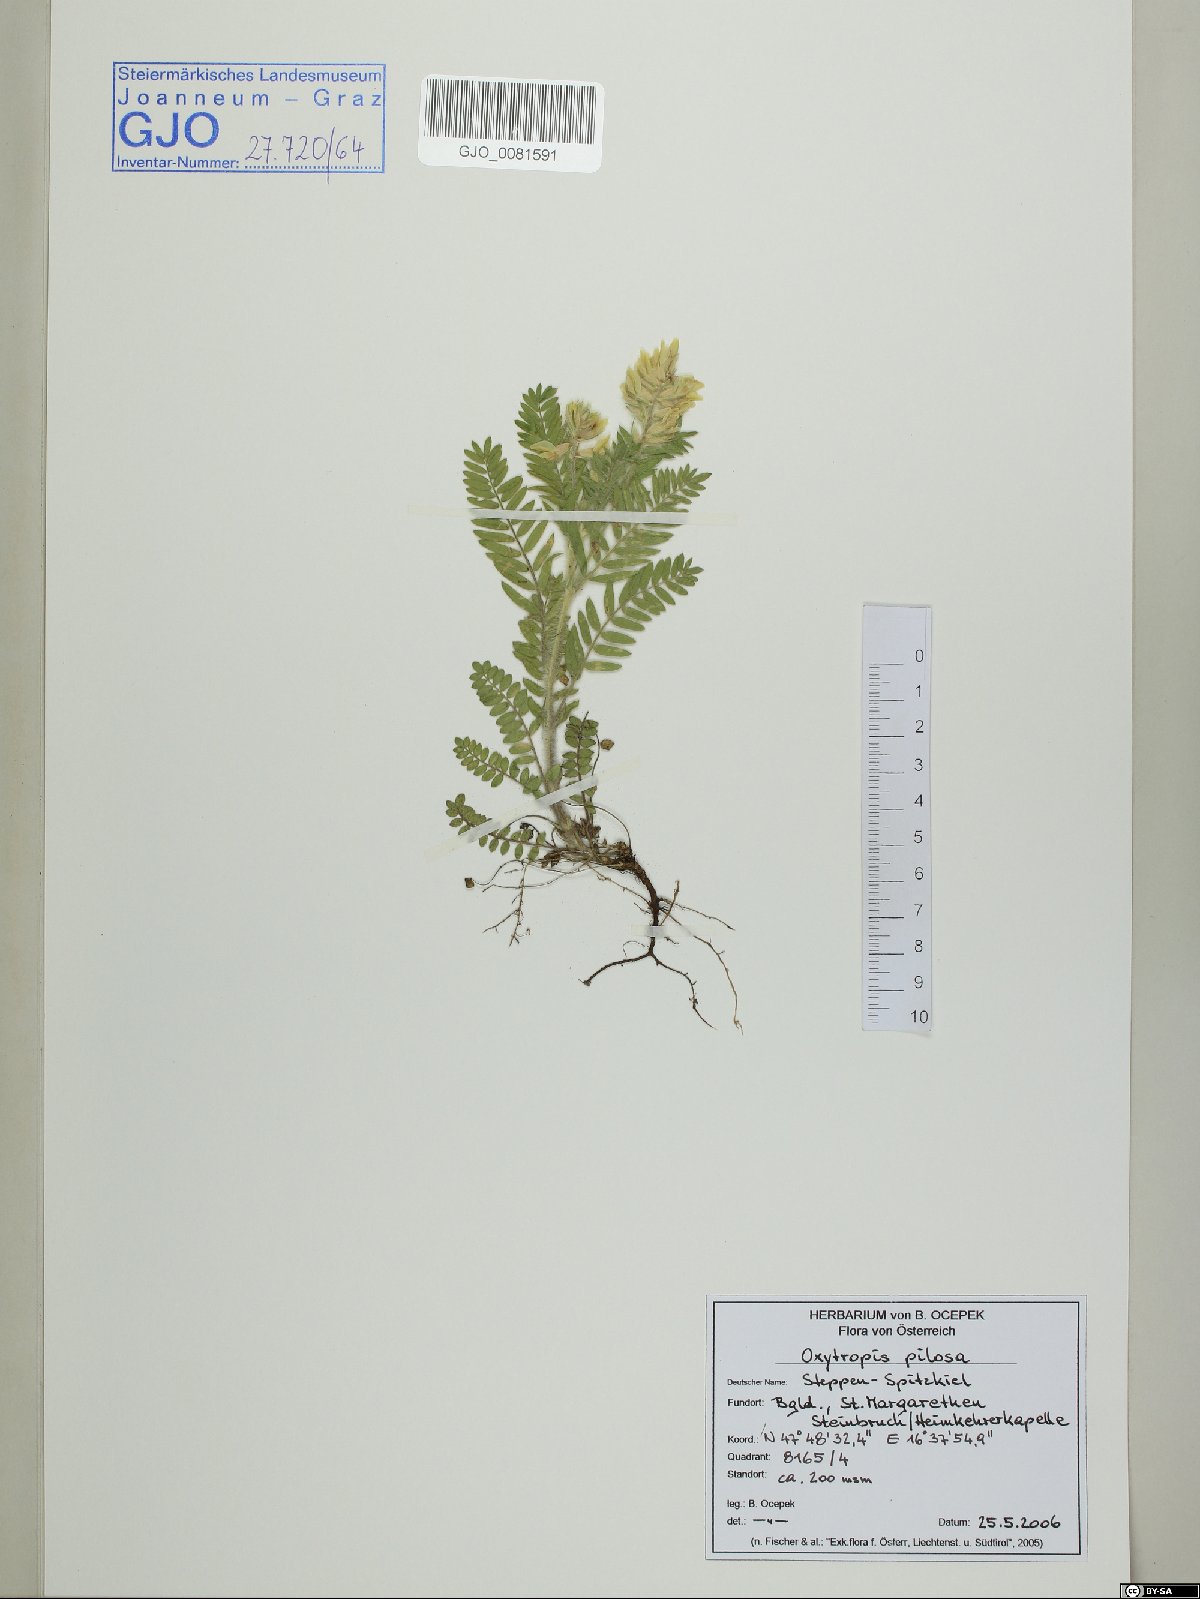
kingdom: Plantae
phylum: Tracheophyta
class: Magnoliopsida
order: Fabales
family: Fabaceae
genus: Oxytropis
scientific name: Oxytropis pilosa
